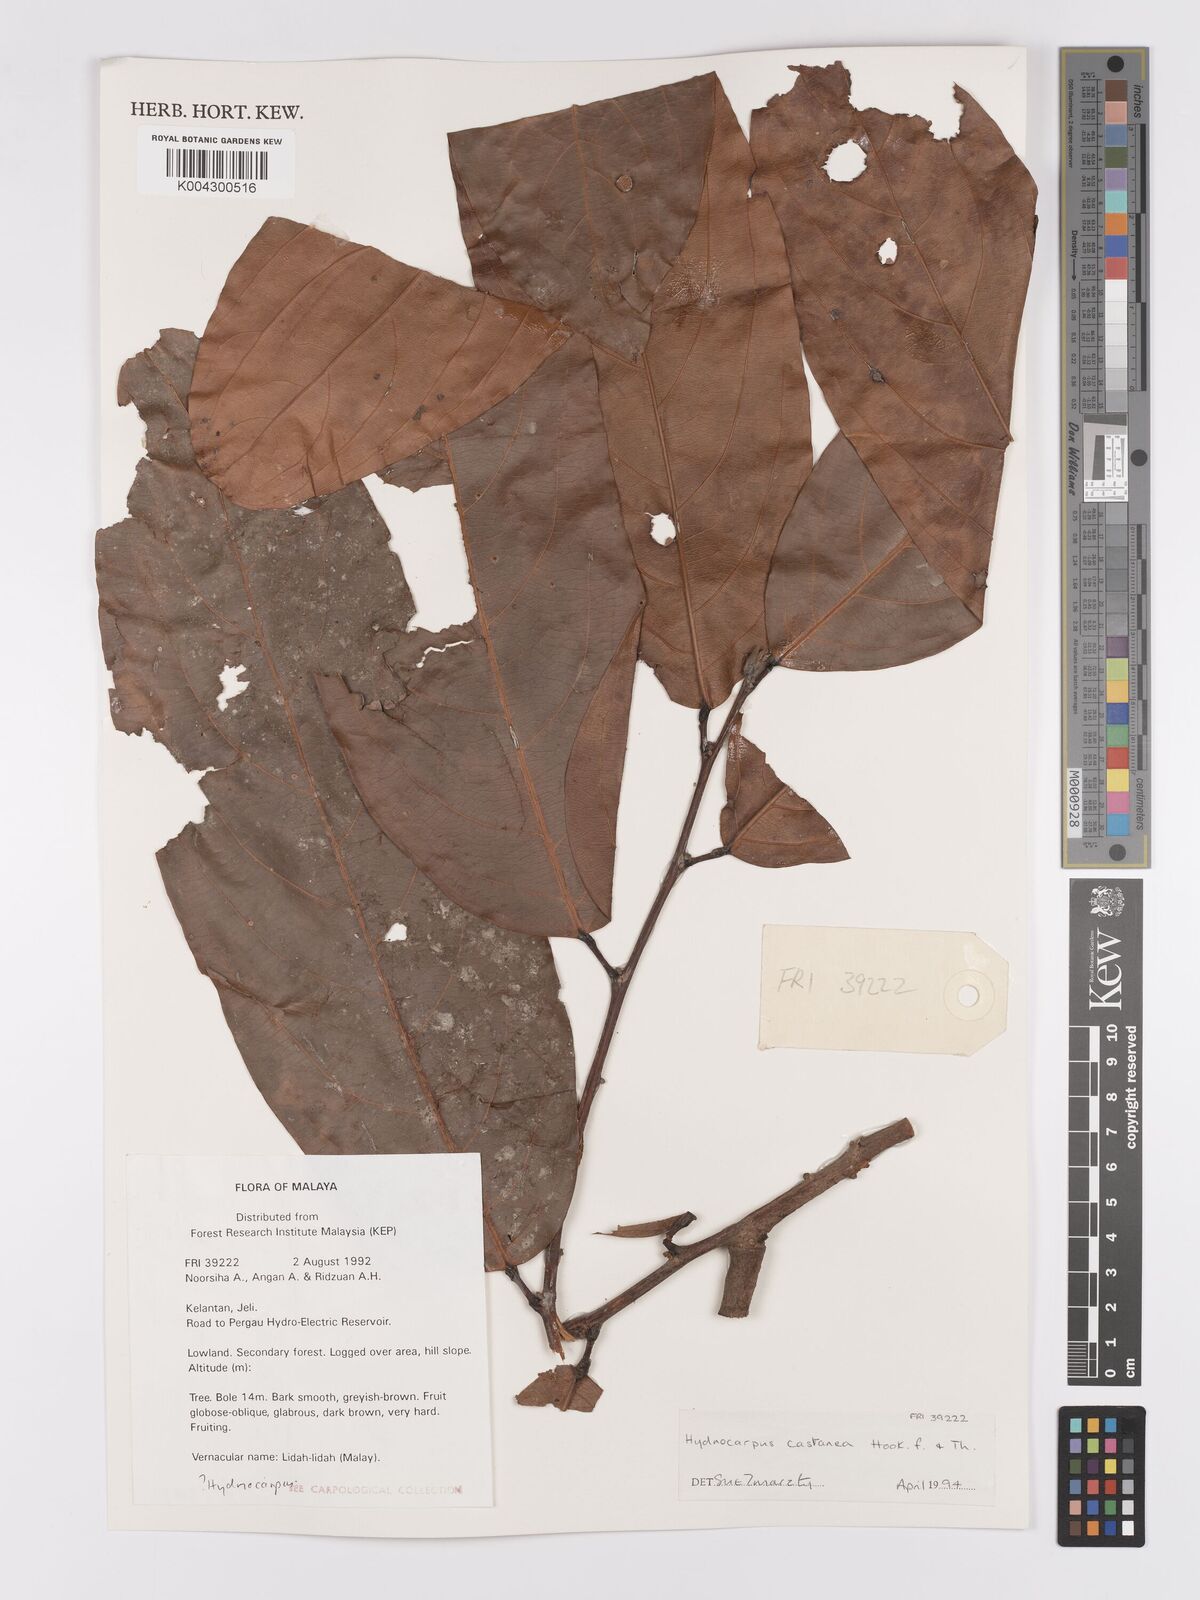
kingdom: Plantae
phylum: Tracheophyta
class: Magnoliopsida
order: Malpighiales
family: Achariaceae
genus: Hydnocarpus
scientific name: Hydnocarpus castaneus
